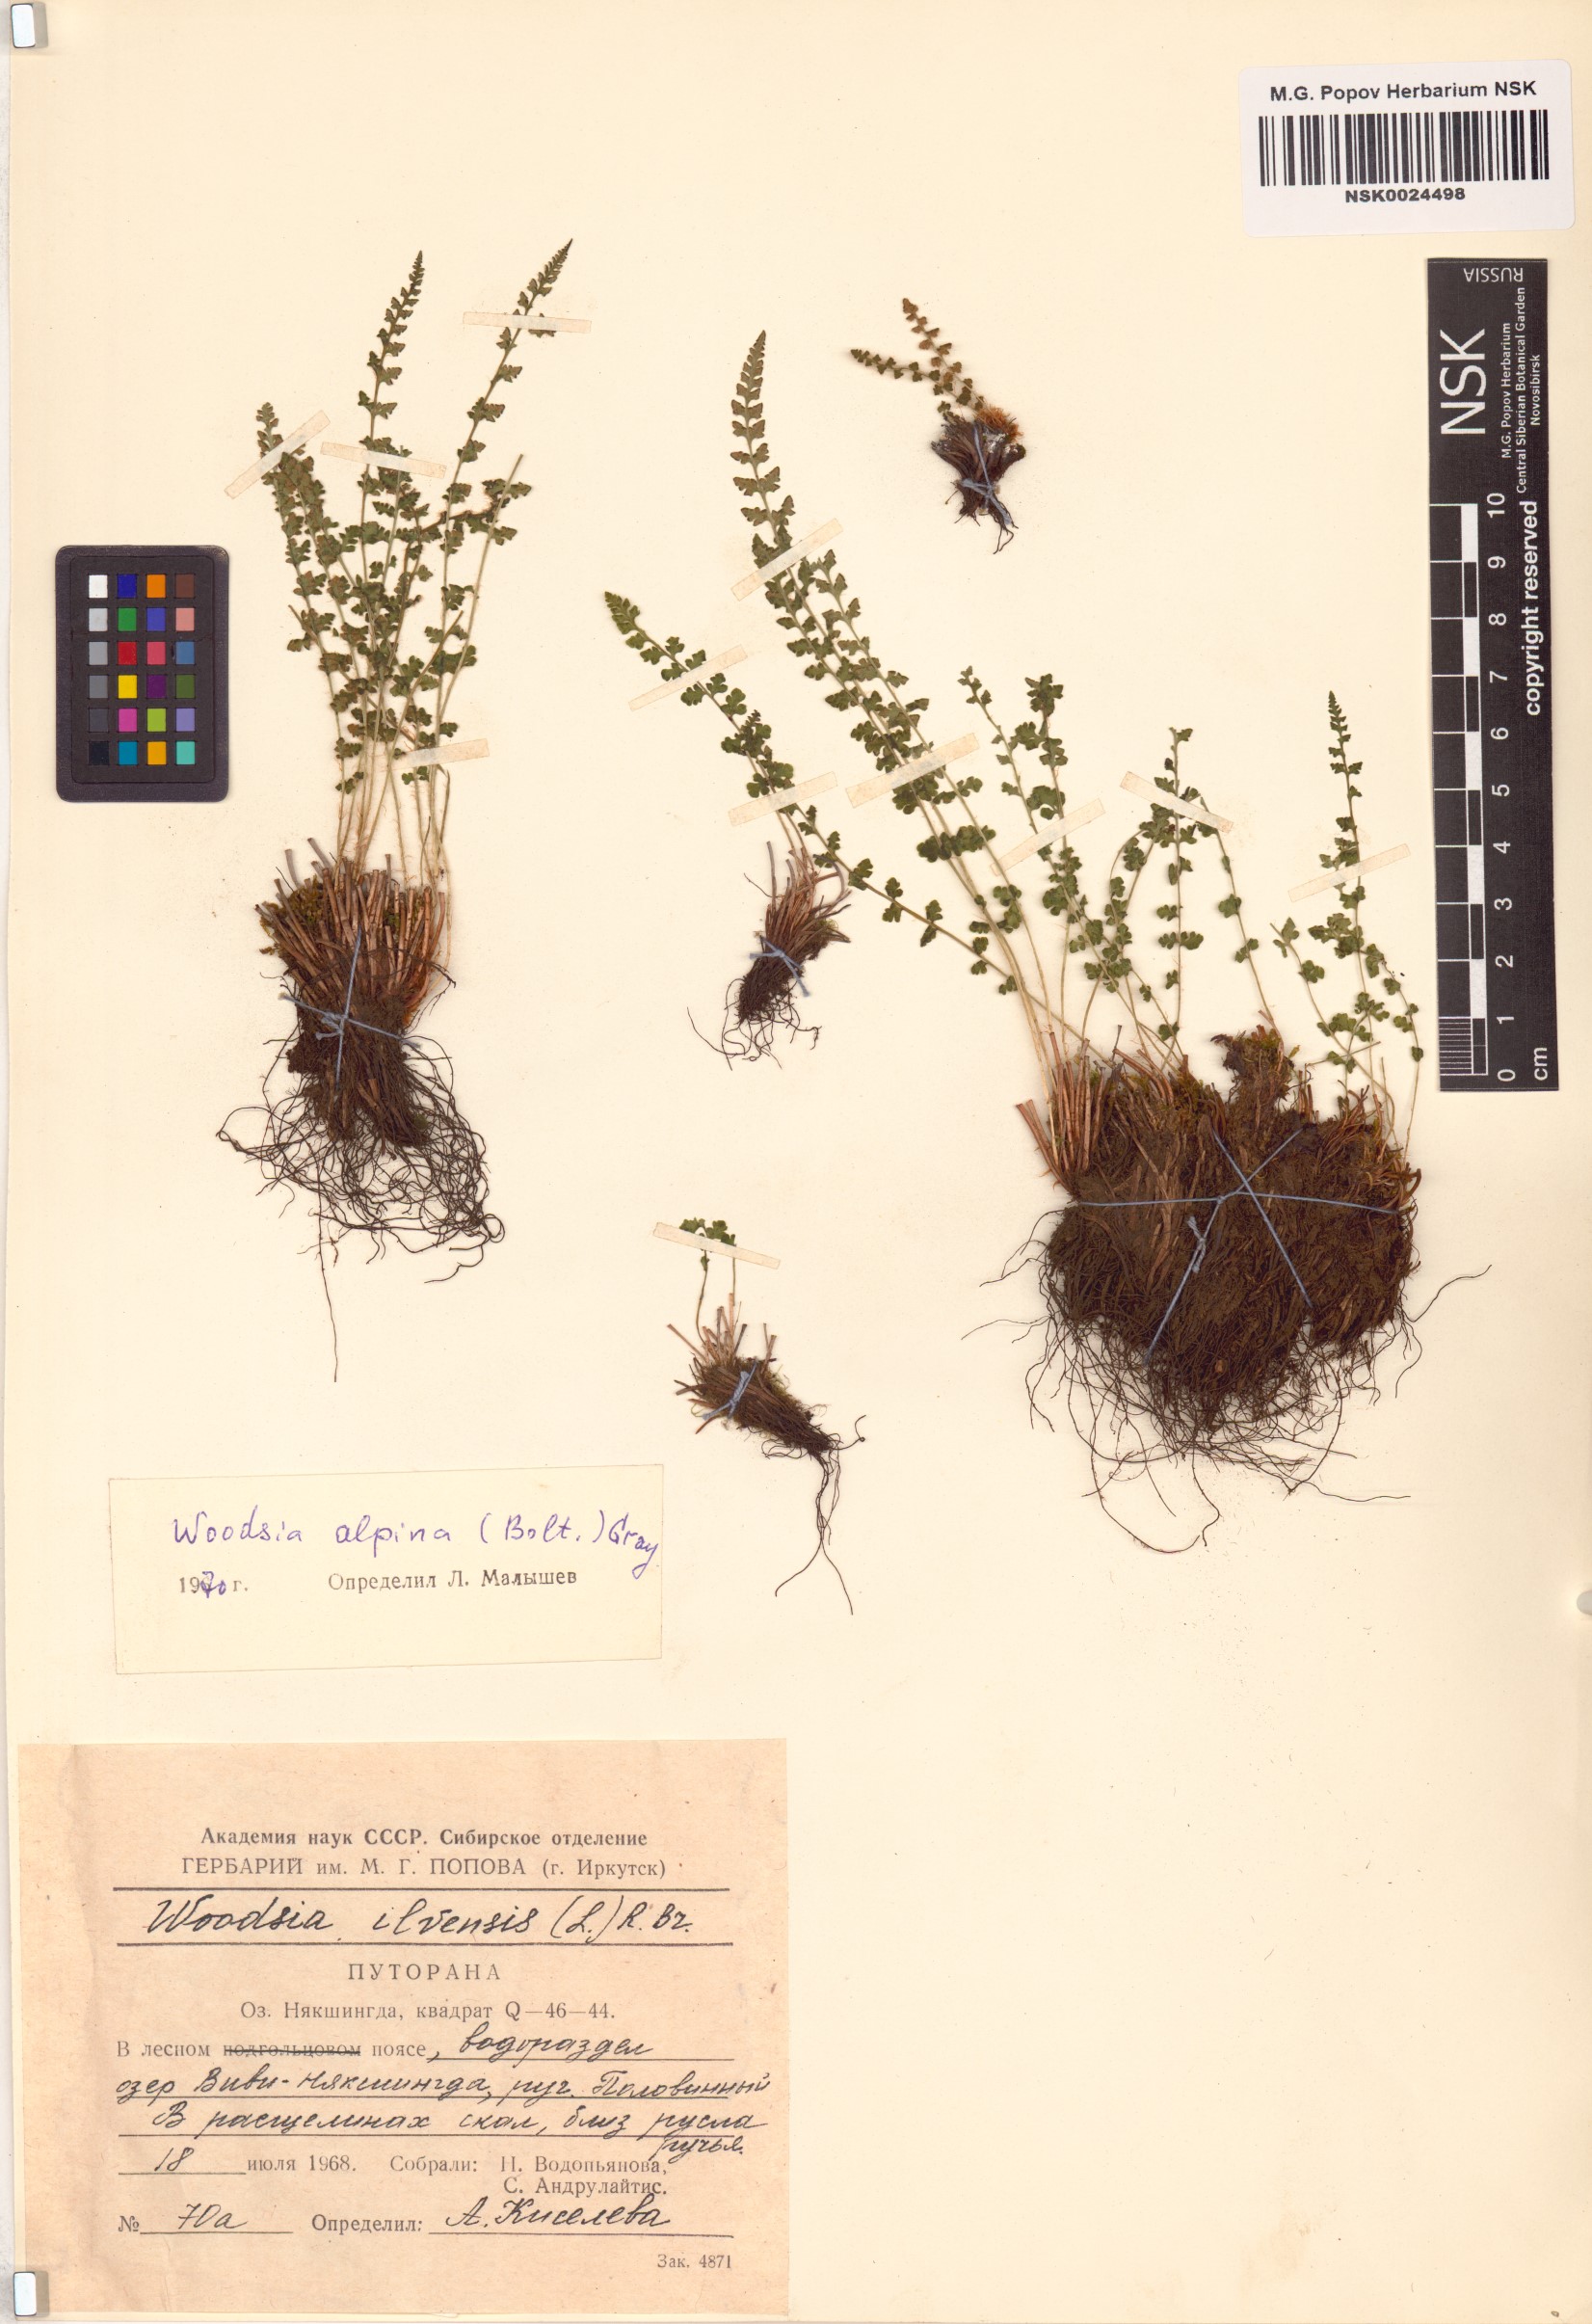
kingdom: Plantae
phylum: Tracheophyta
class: Polypodiopsida
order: Polypodiales
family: Woodsiaceae
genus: Woodsia
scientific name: Woodsia alpina
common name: Alpine woodsia
